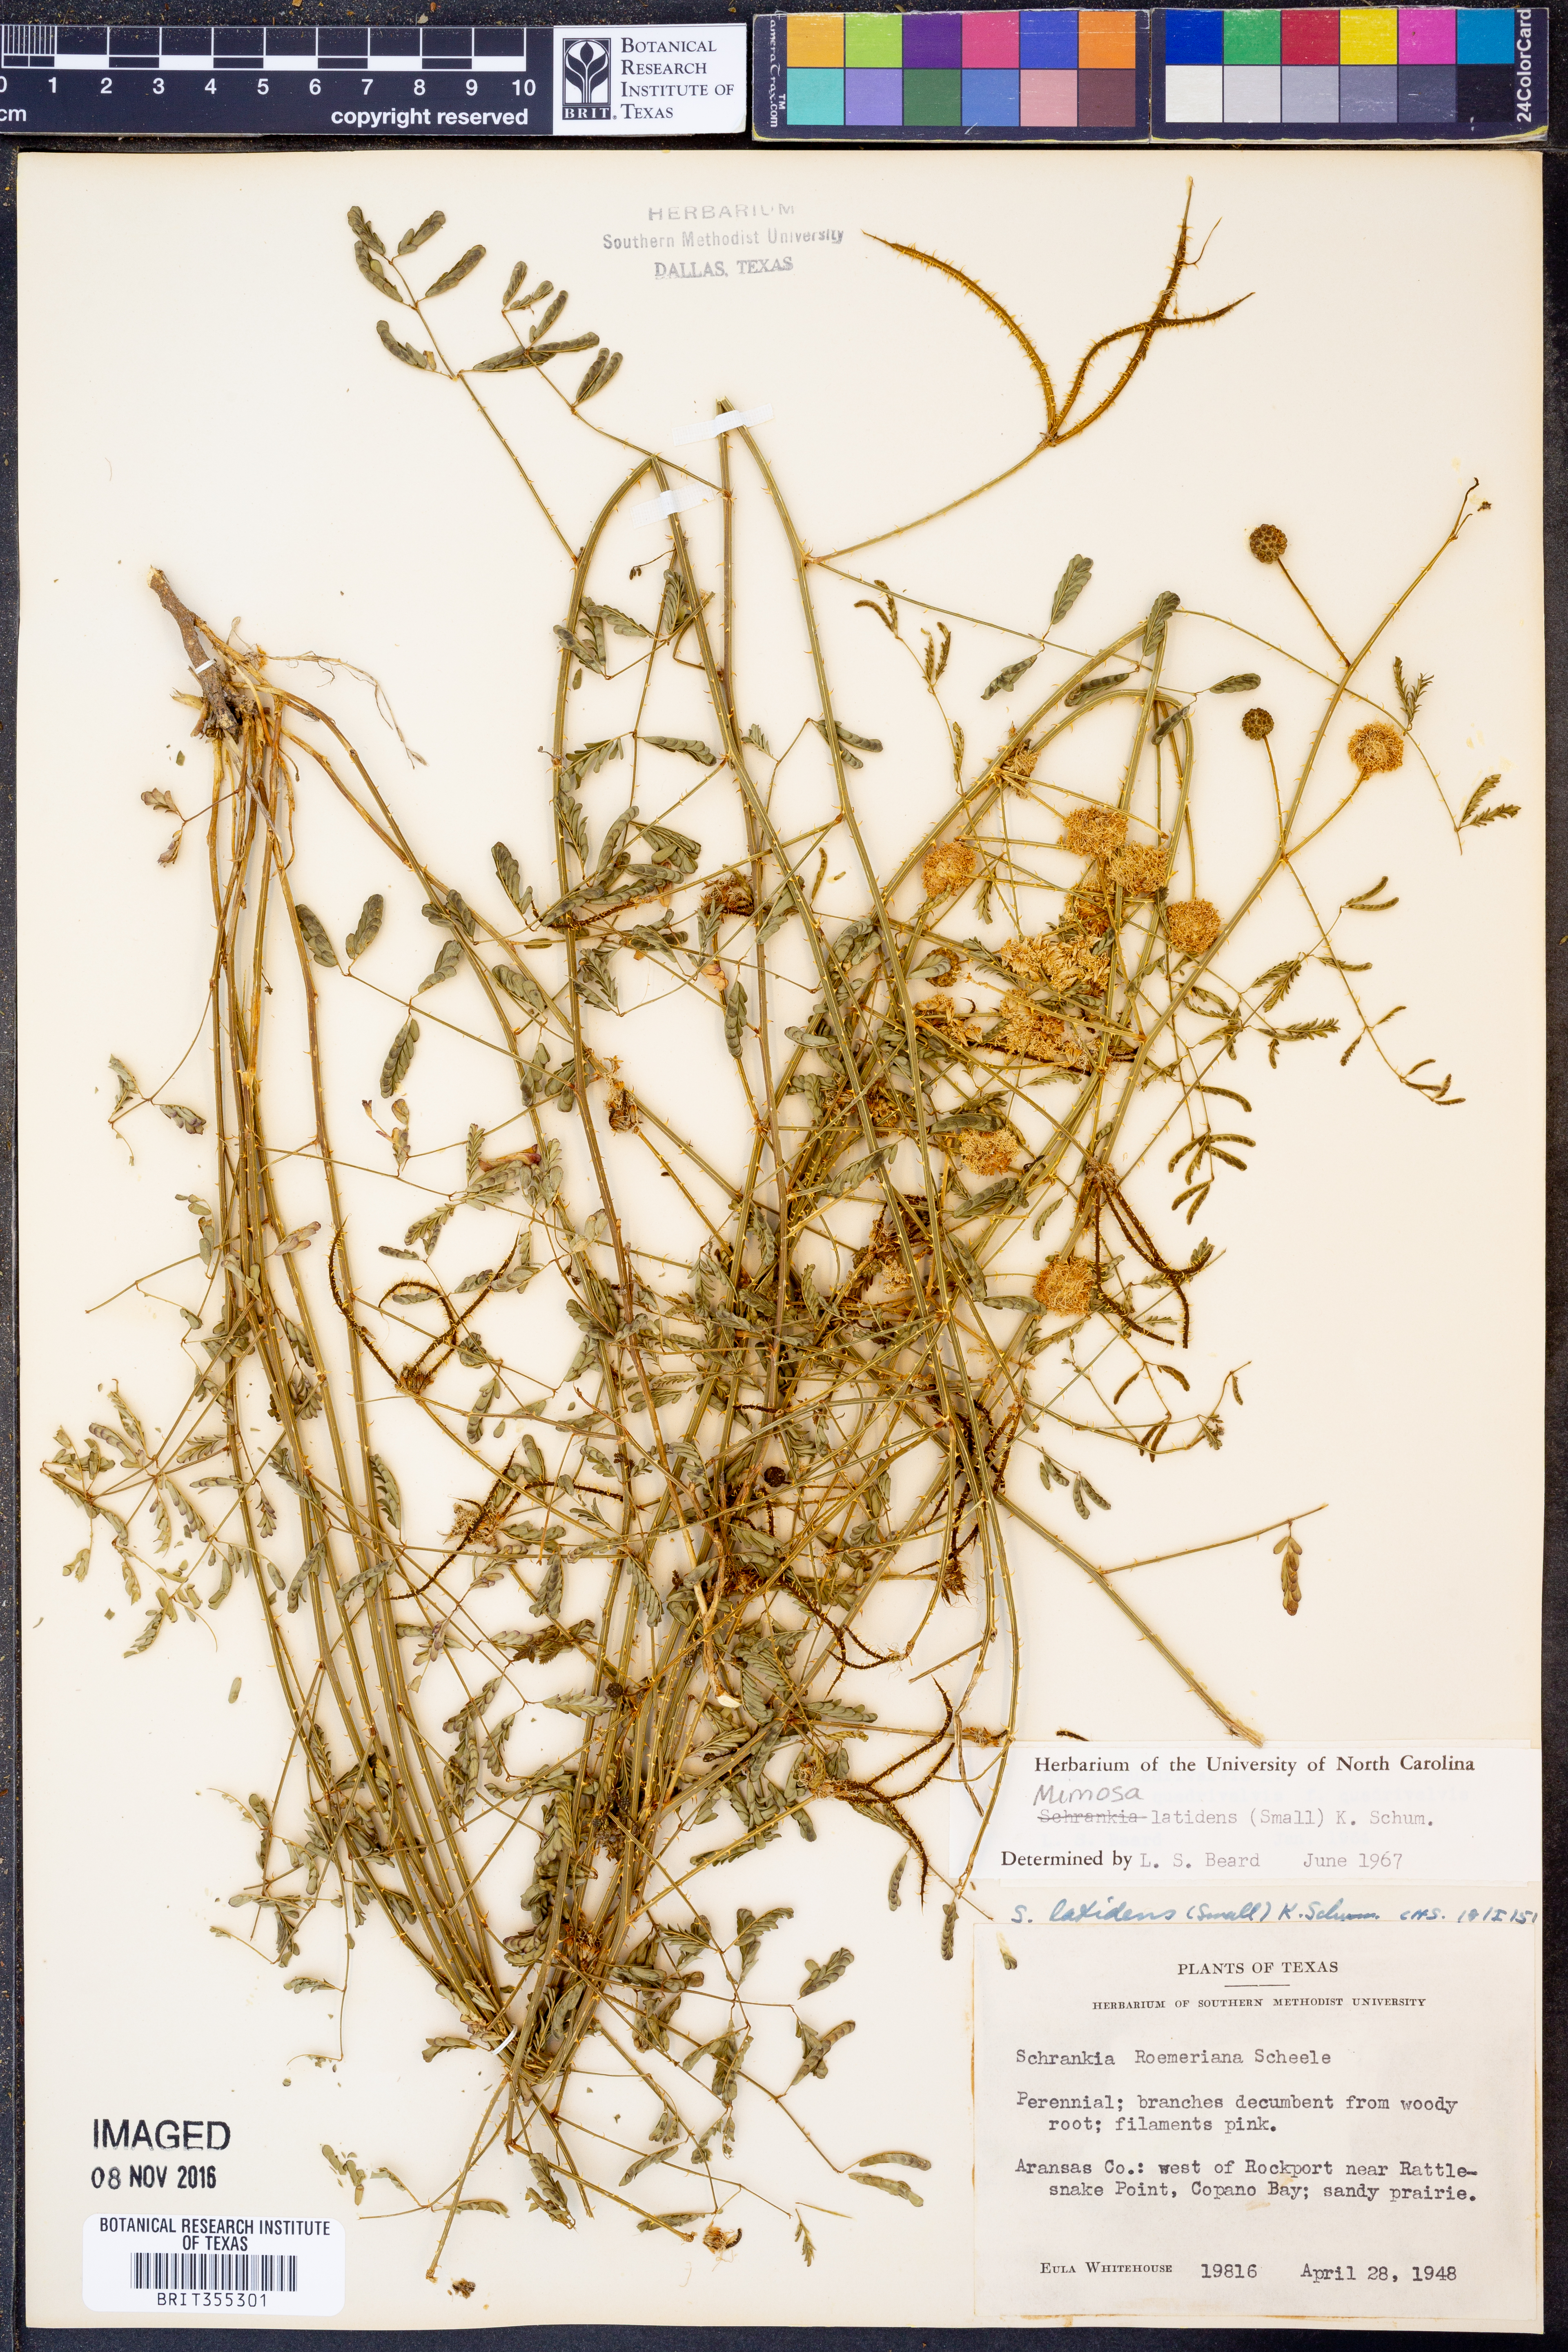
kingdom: Plantae
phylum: Tracheophyta
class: Magnoliopsida
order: Fabales
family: Fabaceae
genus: Mimosa
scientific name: Mimosa latidens
